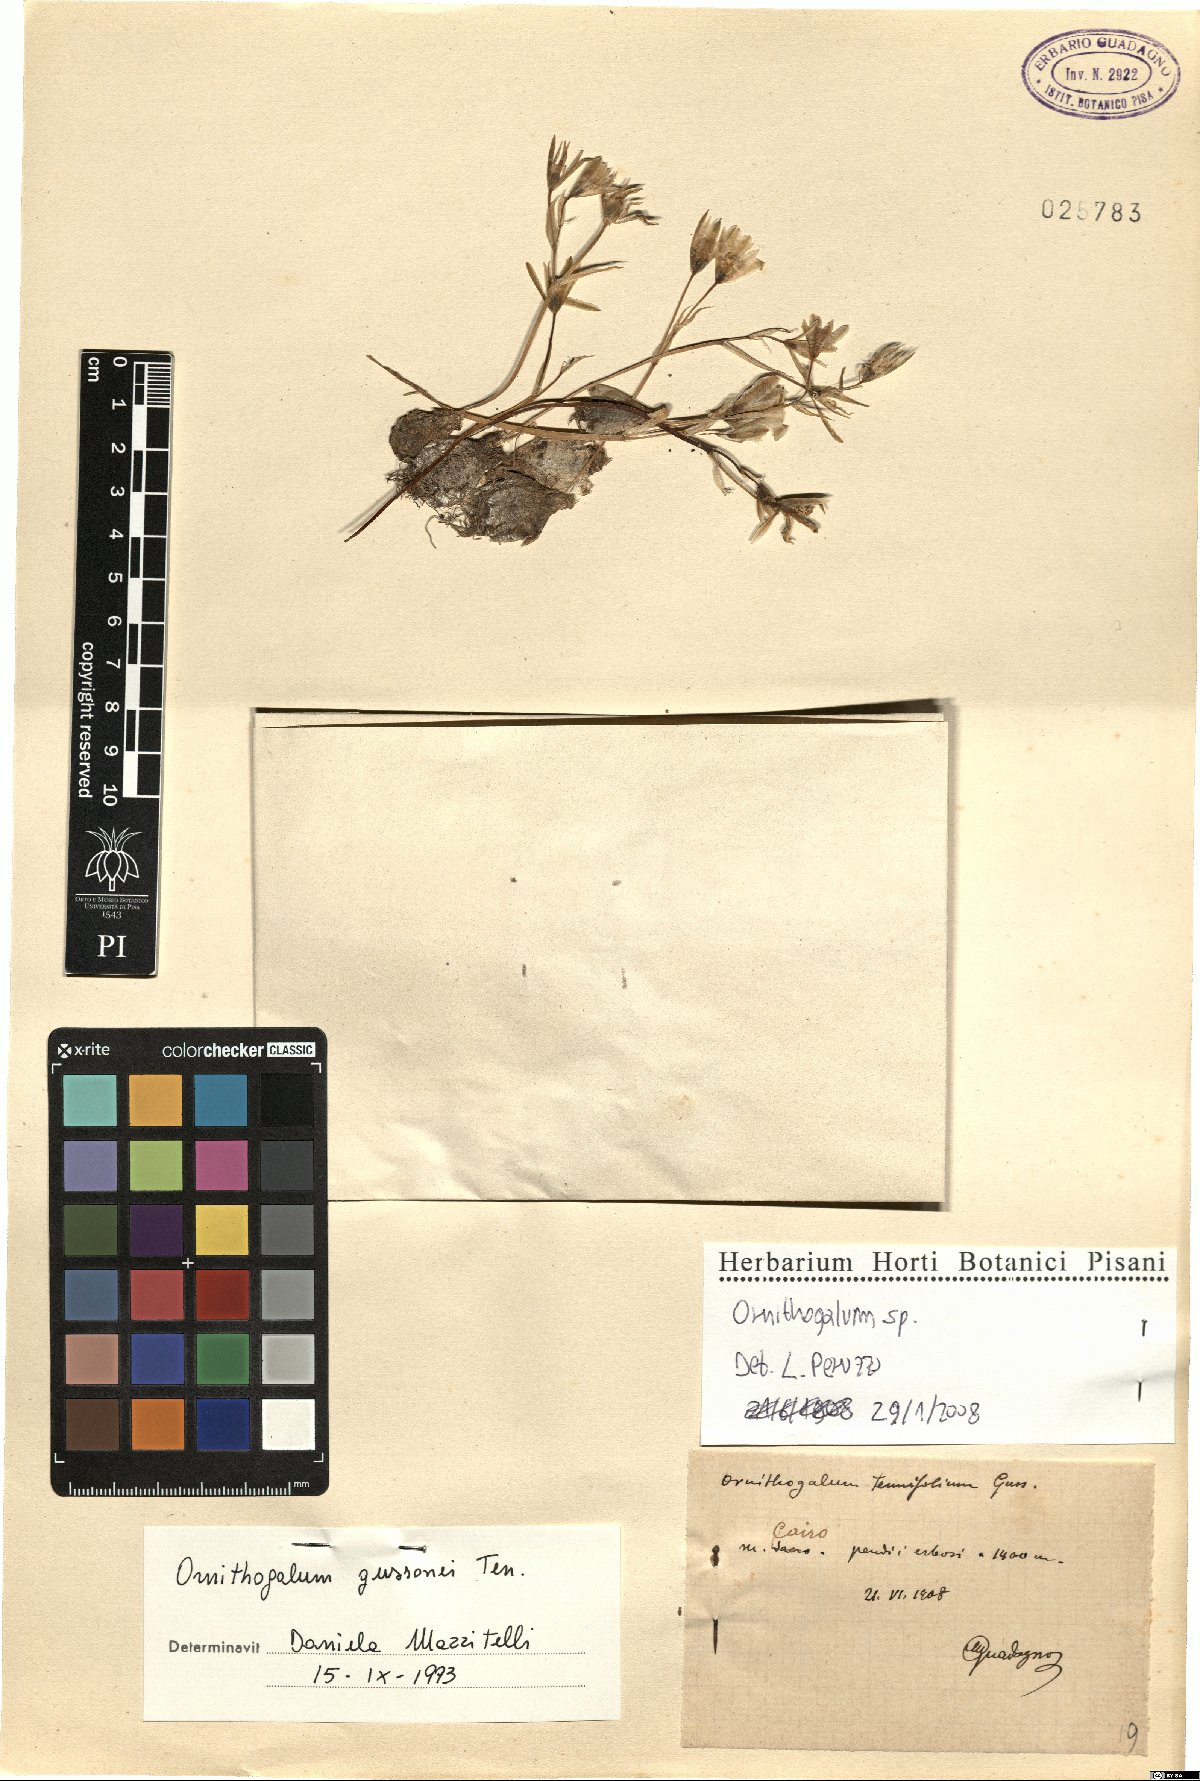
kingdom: Plantae
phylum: Tracheophyta
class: Liliopsida
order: Asparagales
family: Asparagaceae
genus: Ornithogalum
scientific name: Ornithogalum
